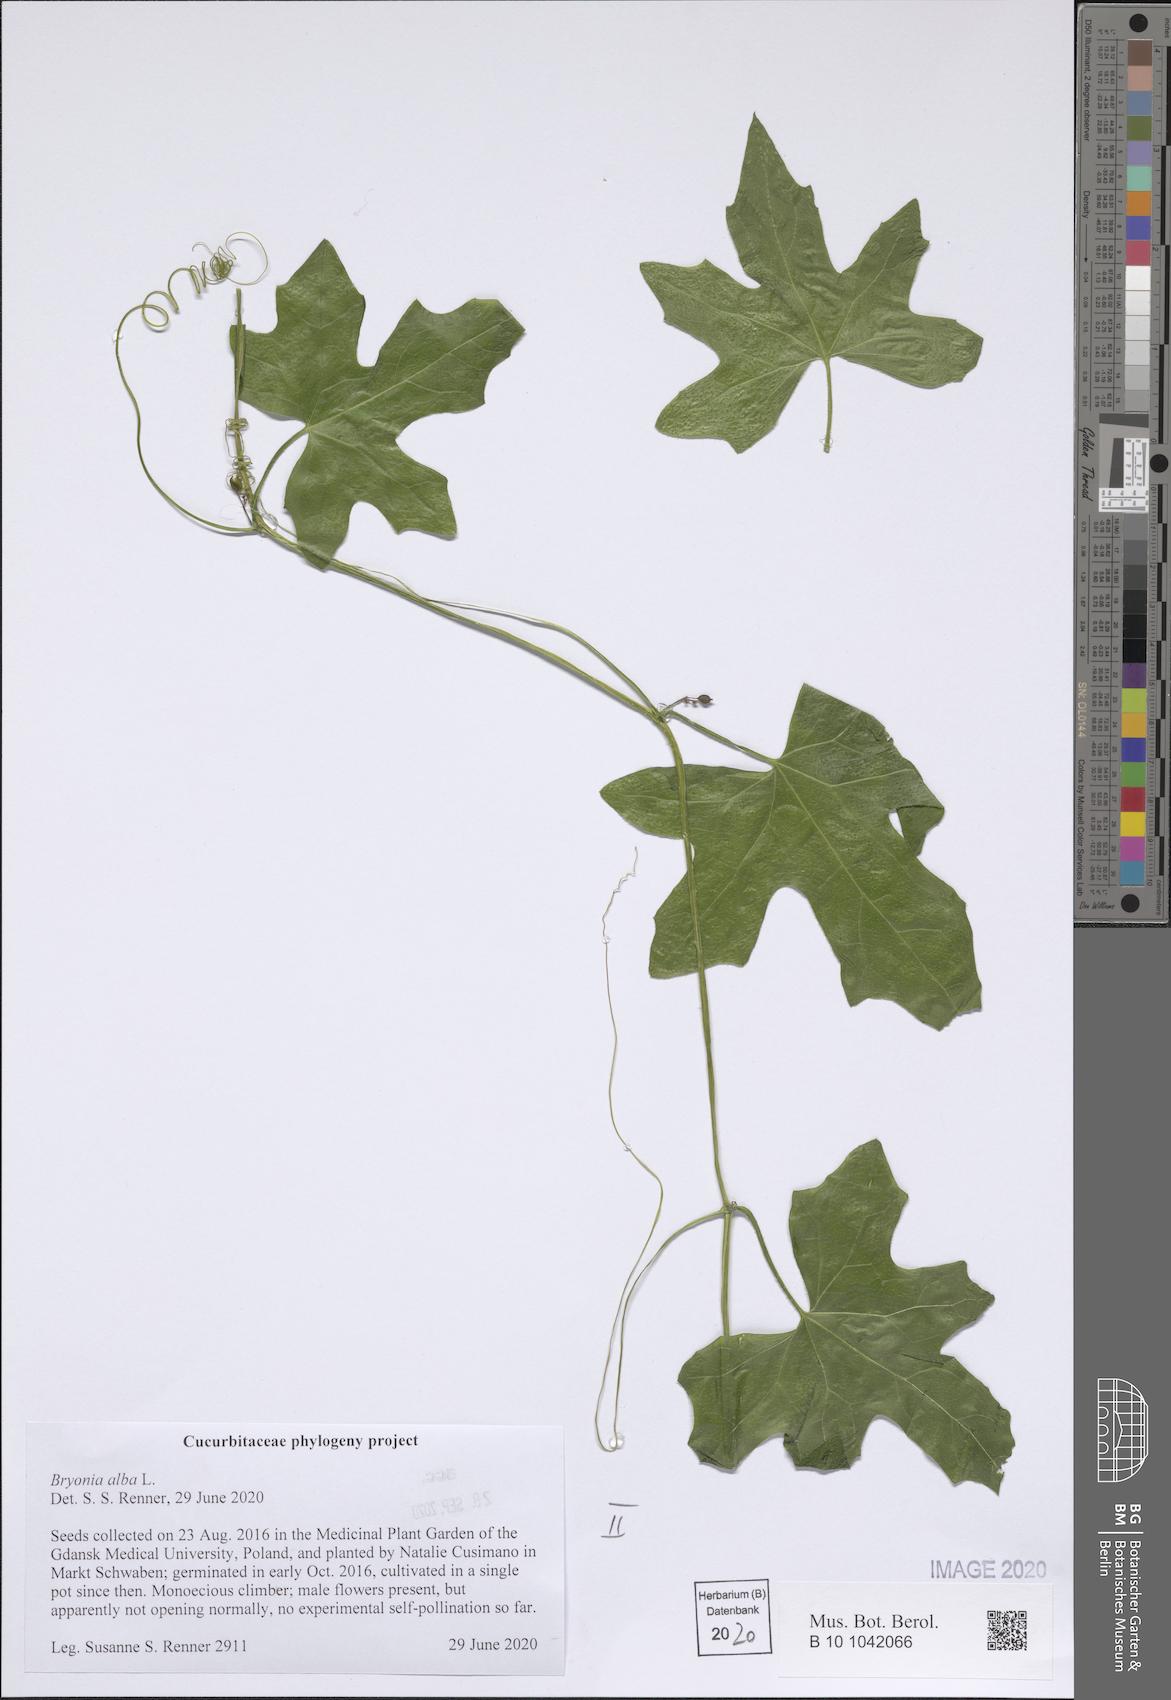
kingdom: Plantae
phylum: Tracheophyta
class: Magnoliopsida
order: Cucurbitales
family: Cucurbitaceae
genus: Bryonia
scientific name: Bryonia alba
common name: White bryony
